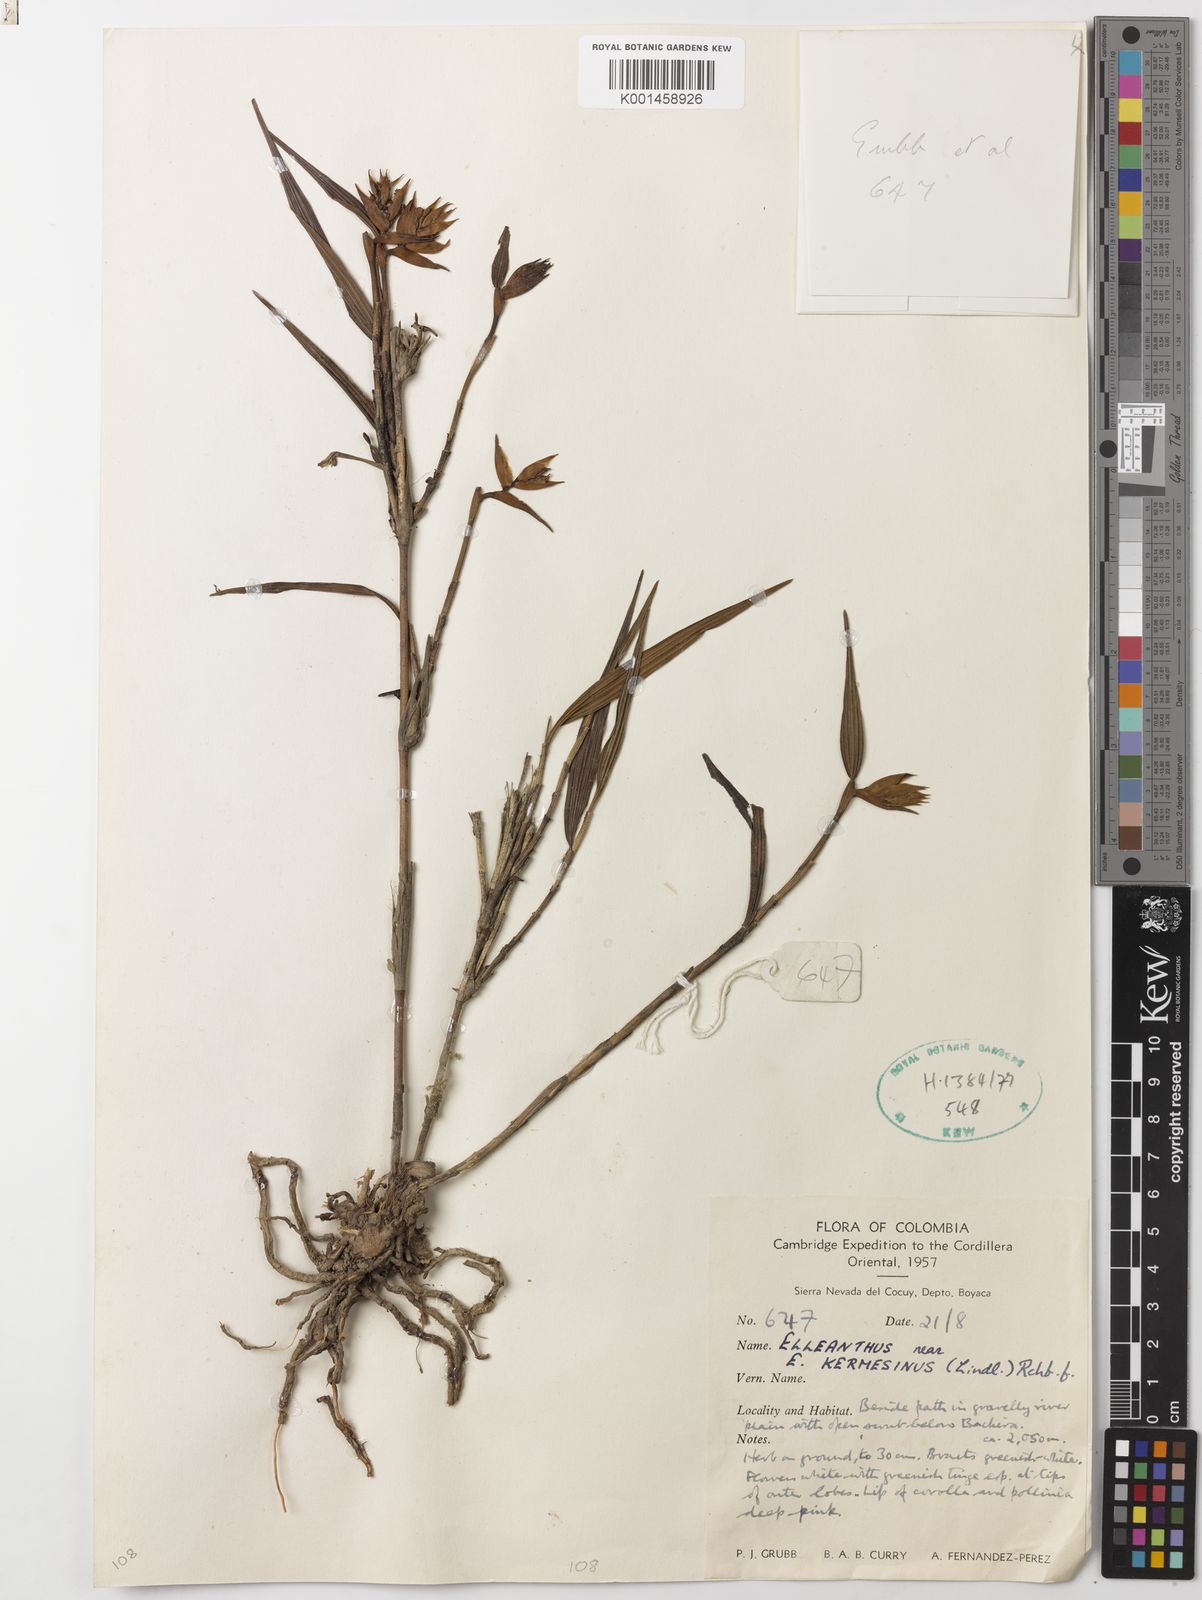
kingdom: Plantae
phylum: Tracheophyta
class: Liliopsida
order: Asparagales
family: Orchidaceae
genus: Elleanthus
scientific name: Elleanthus kermesinus
